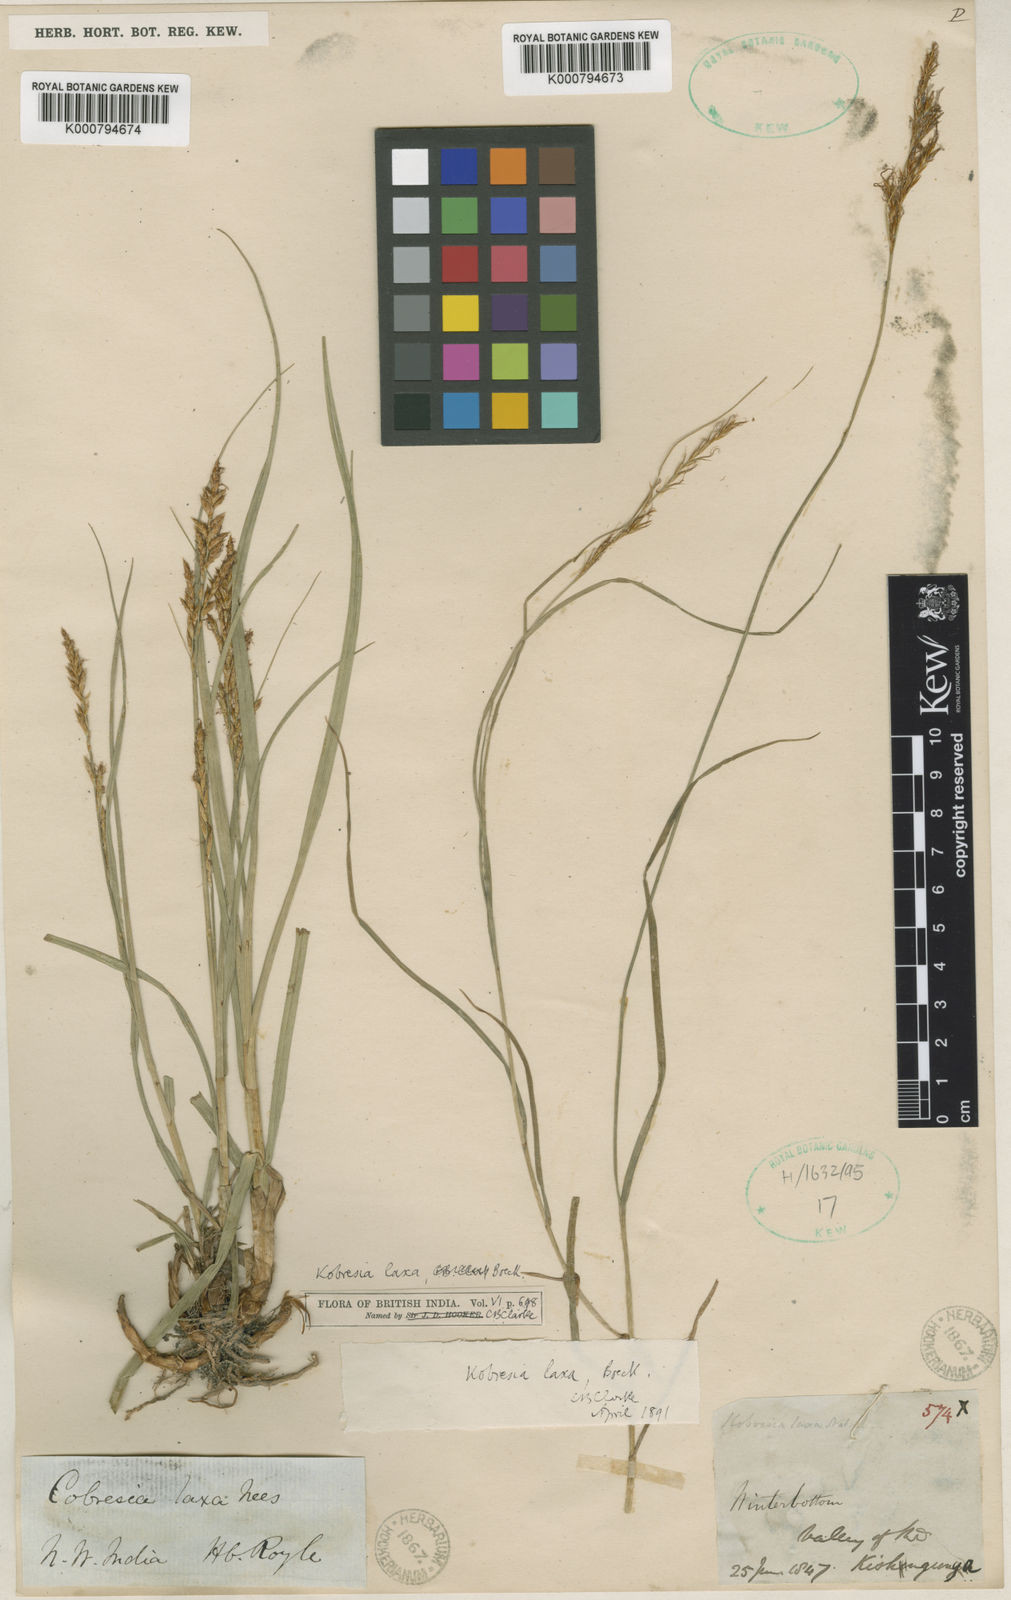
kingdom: Plantae
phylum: Tracheophyta
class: Liliopsida
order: Poales
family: Cyperaceae
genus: Carex
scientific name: Carex
